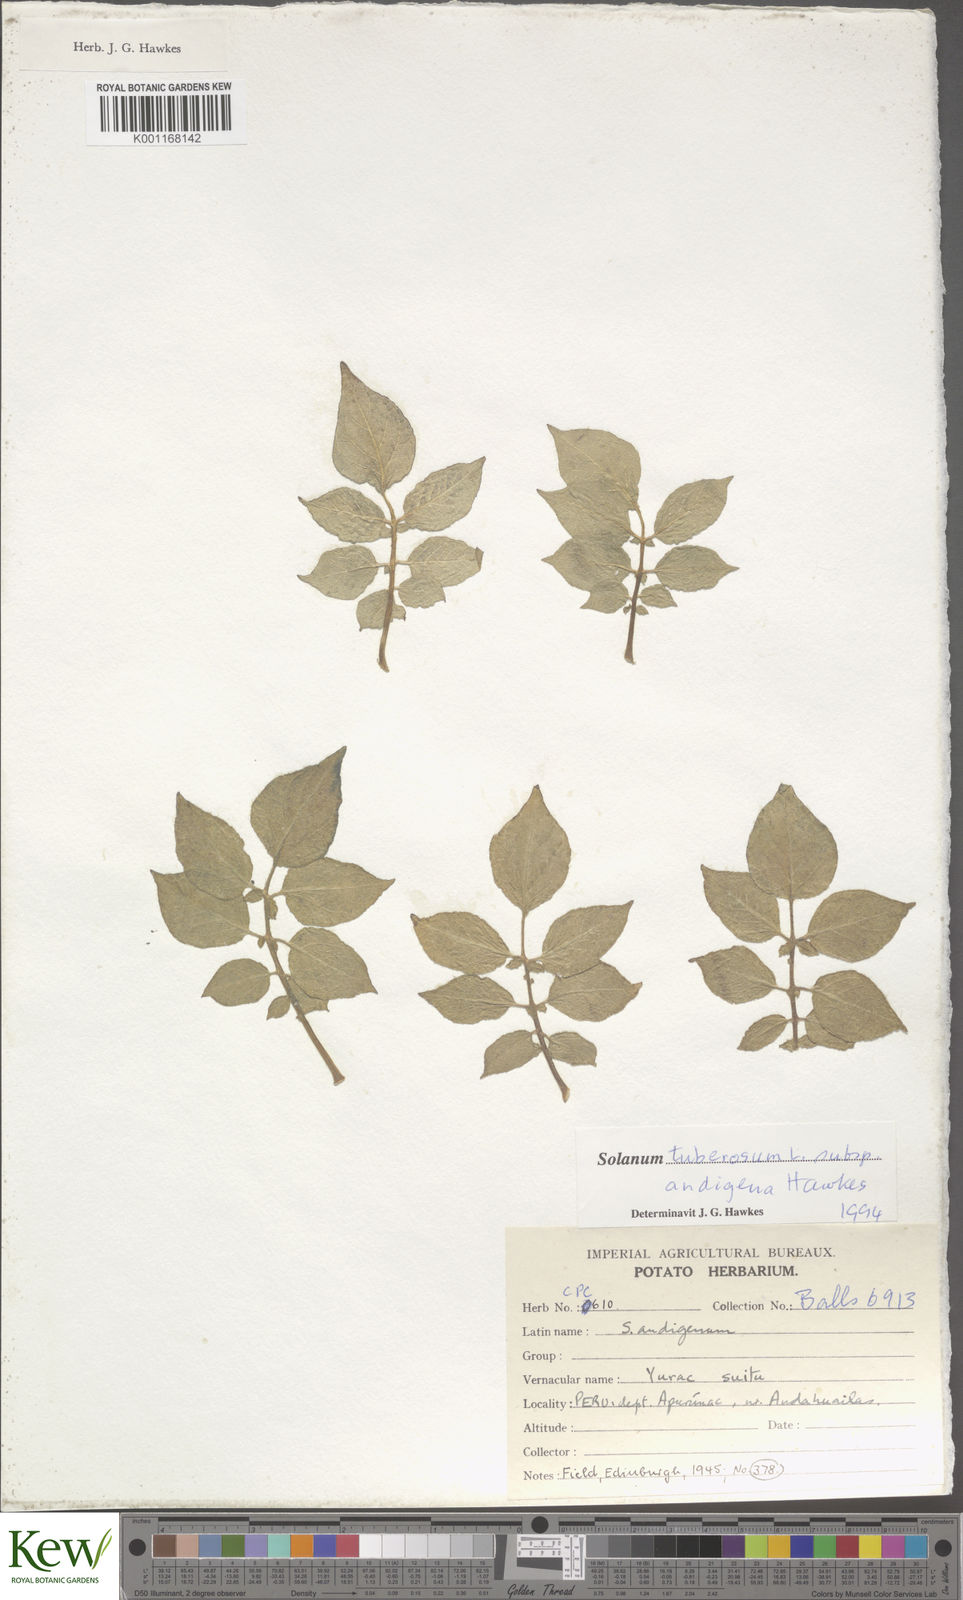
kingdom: Plantae
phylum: Tracheophyta
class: Magnoliopsida
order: Solanales
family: Solanaceae
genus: Solanum
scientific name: Solanum tuberosum
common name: Potato
